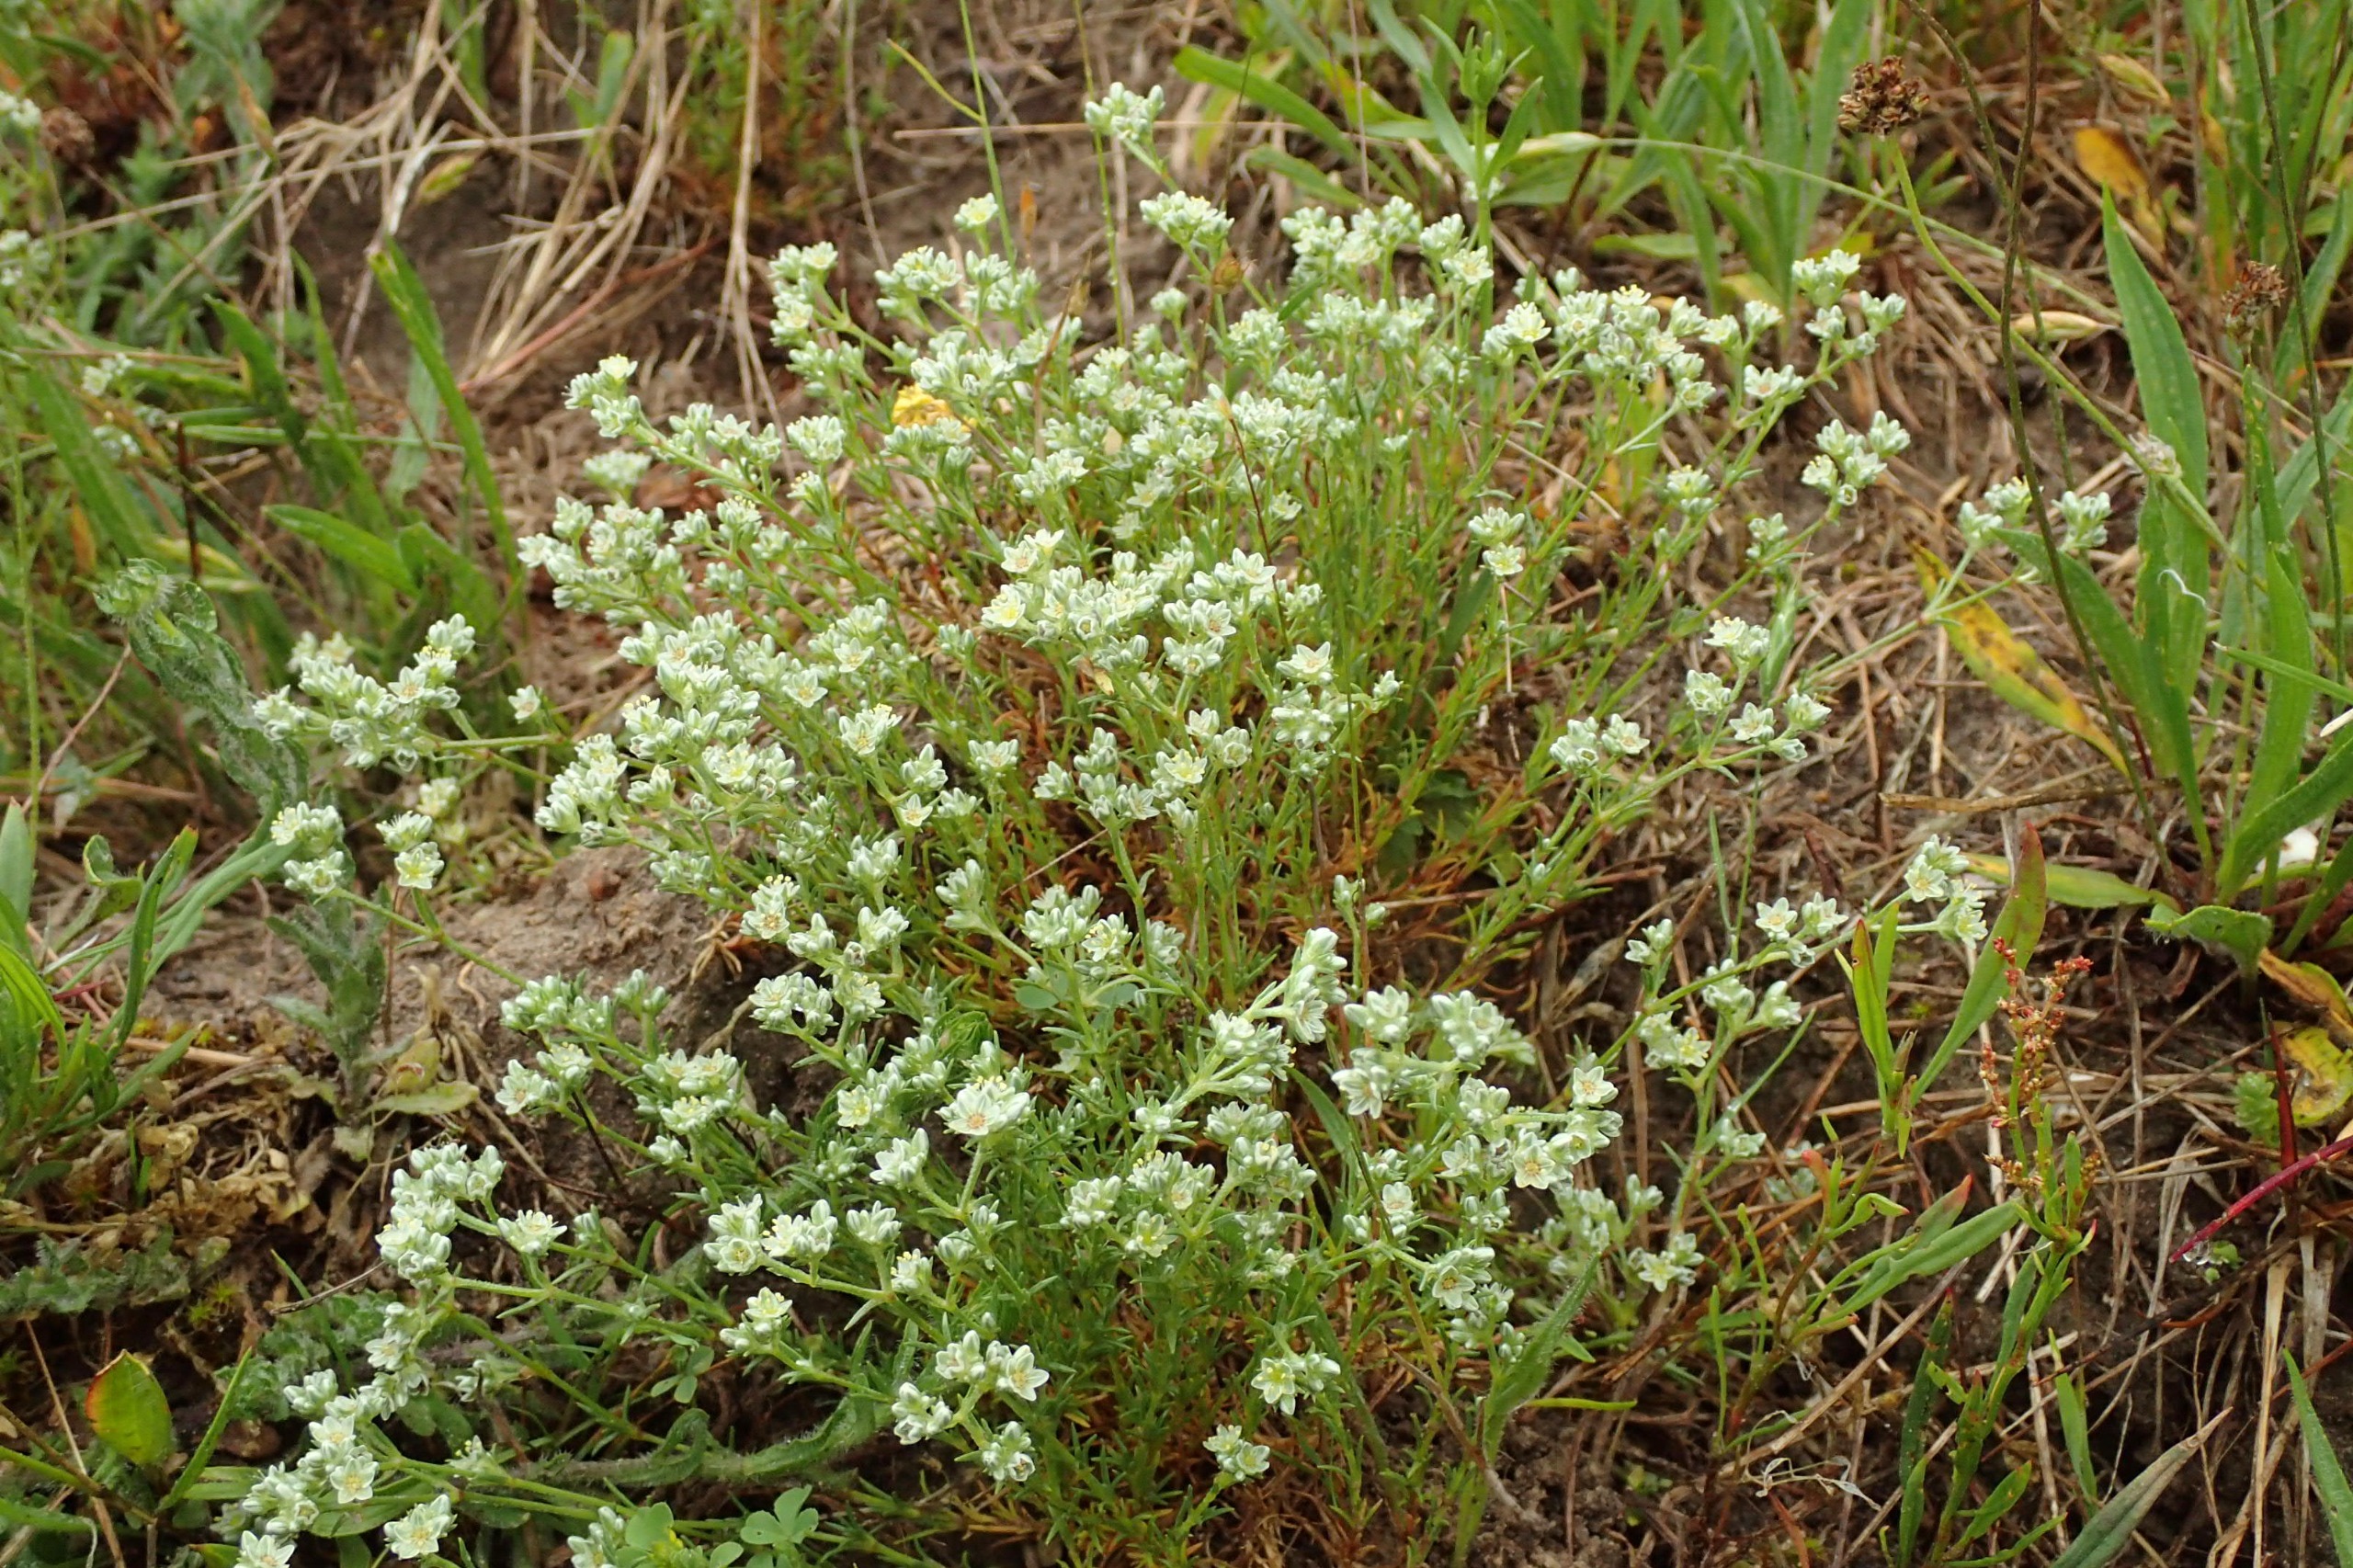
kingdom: Plantae
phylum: Tracheophyta
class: Magnoliopsida
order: Caryophyllales
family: Caryophyllaceae
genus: Scleranthus
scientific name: Scleranthus perennis
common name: Flerårig knavel
